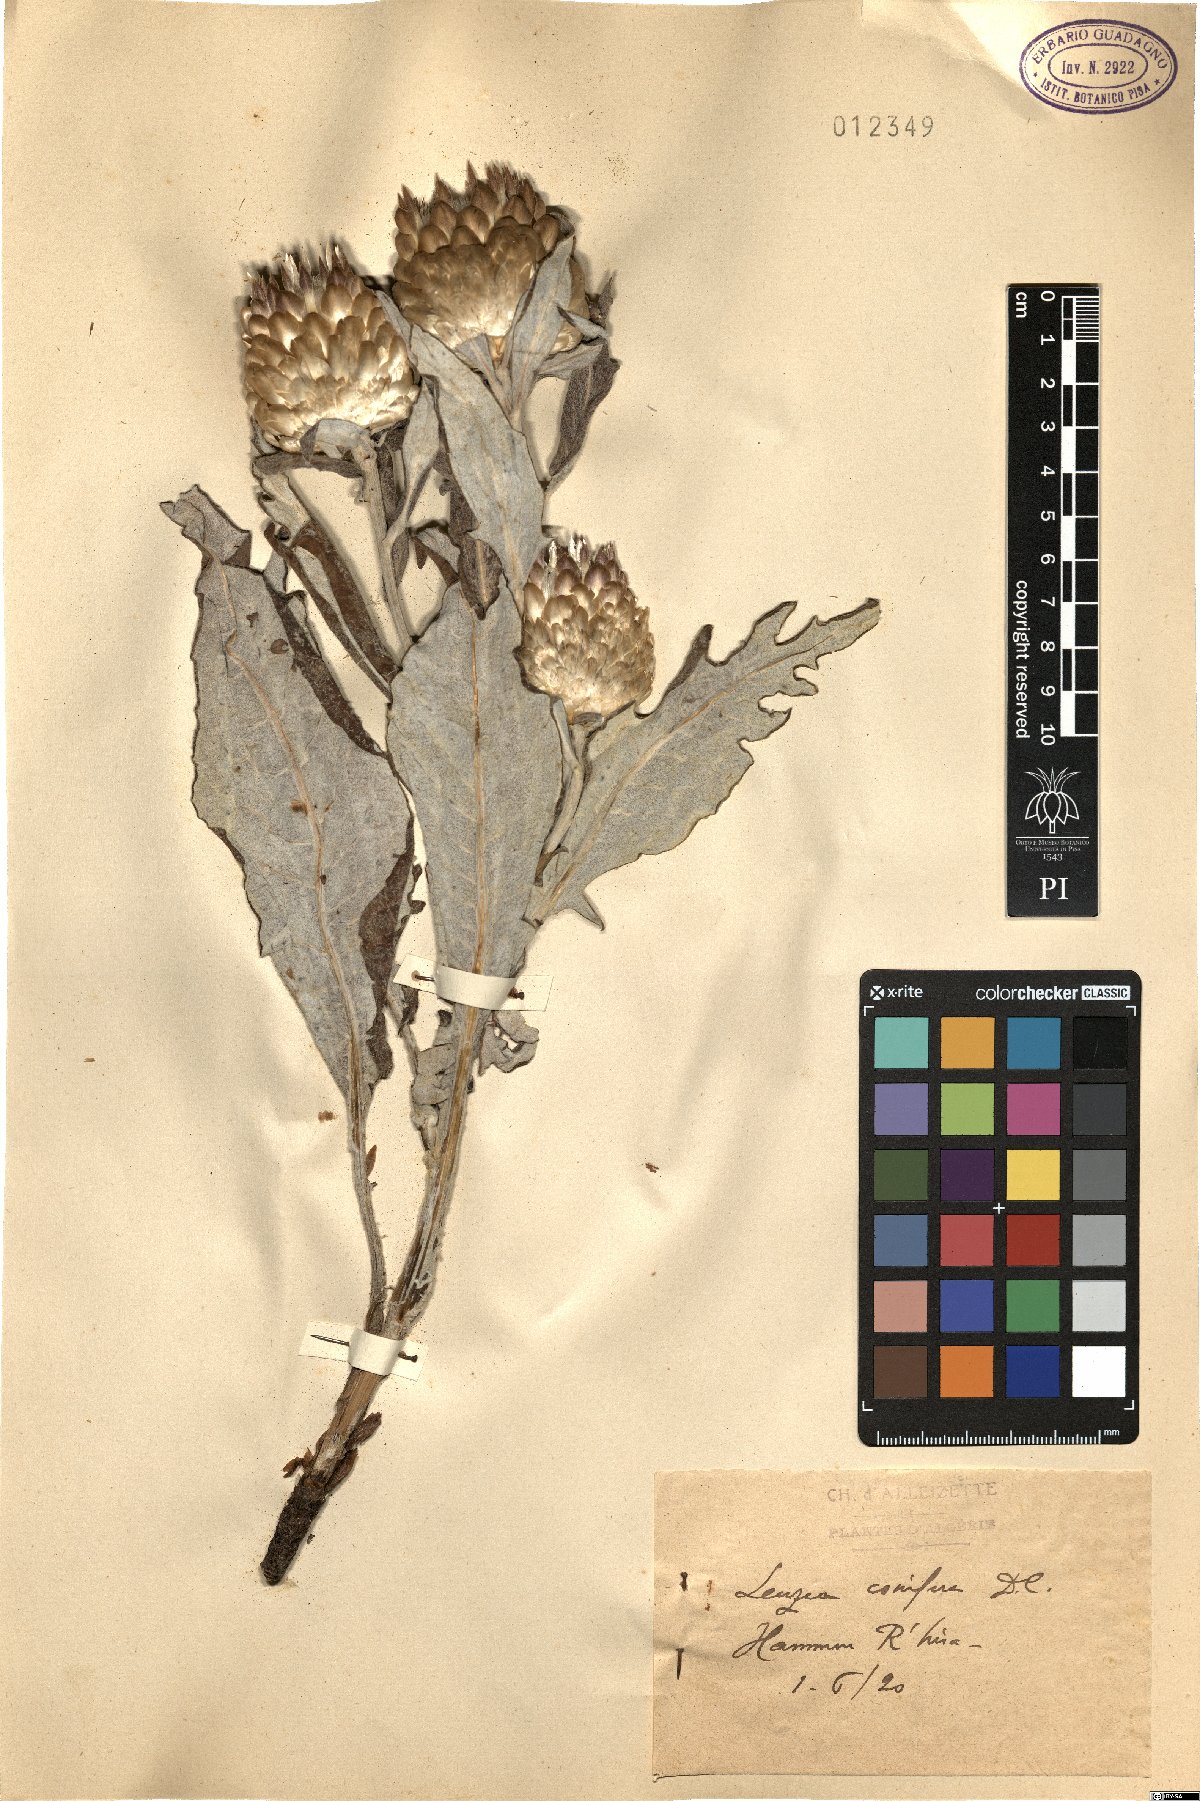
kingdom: Plantae
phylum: Tracheophyta
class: Magnoliopsida
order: Asterales
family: Asteraceae
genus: Leuzea
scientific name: Leuzea conifera
